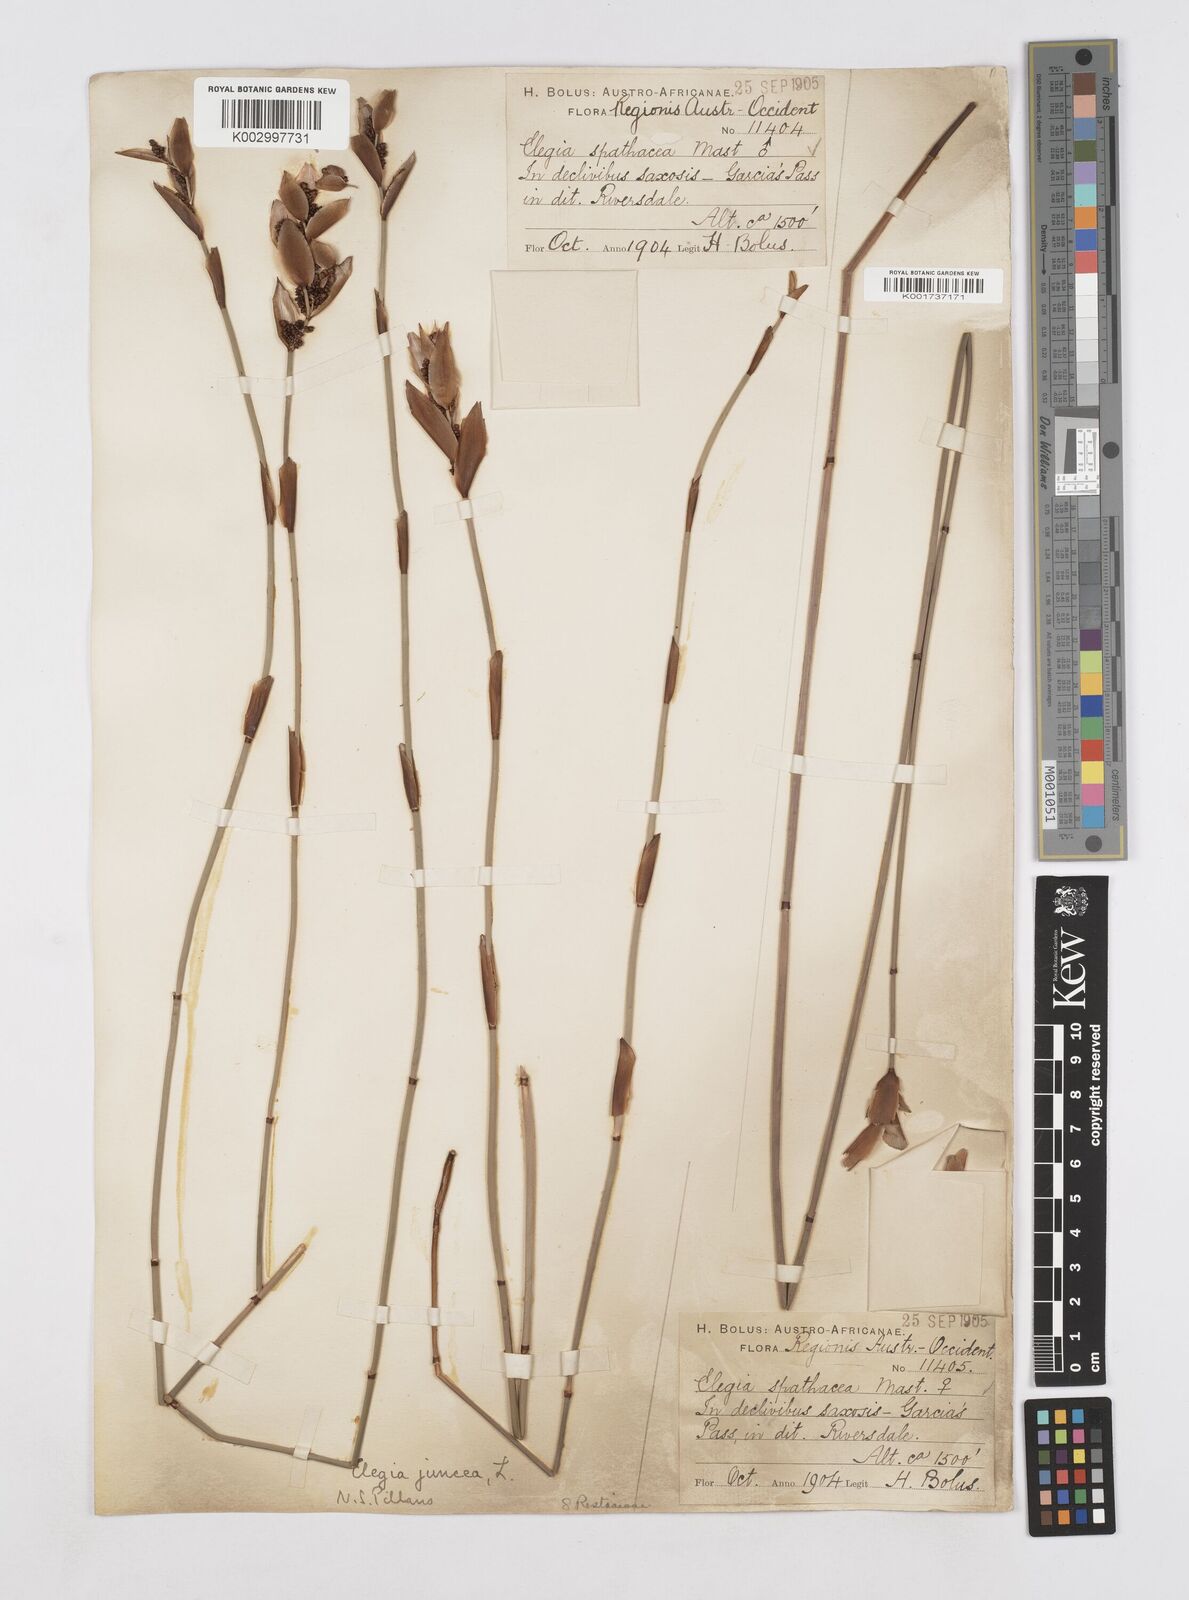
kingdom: Plantae
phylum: Tracheophyta
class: Liliopsida
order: Poales
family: Restionaceae
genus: Elegia
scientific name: Elegia juncea
